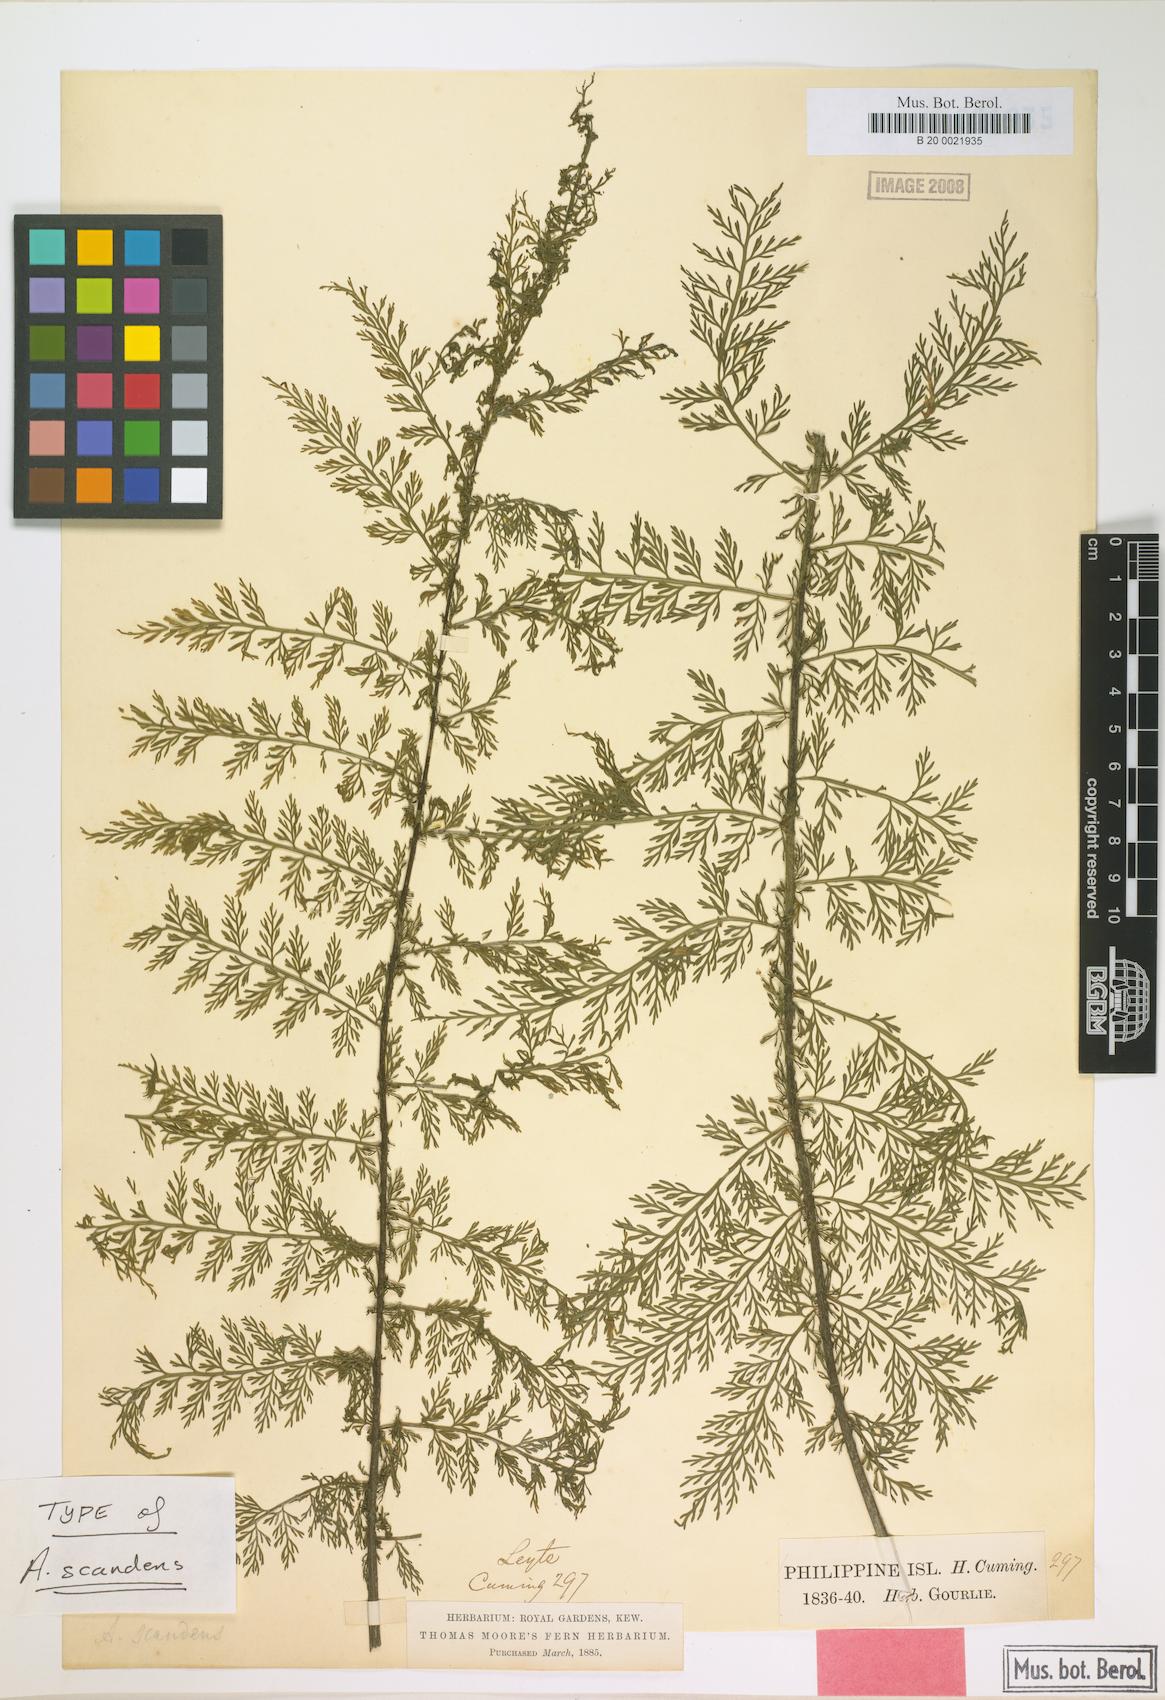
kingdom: Plantae
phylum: Tracheophyta
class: Polypodiopsida
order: Polypodiales
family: Aspleniaceae
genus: Asplenium
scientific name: Asplenium scandens
